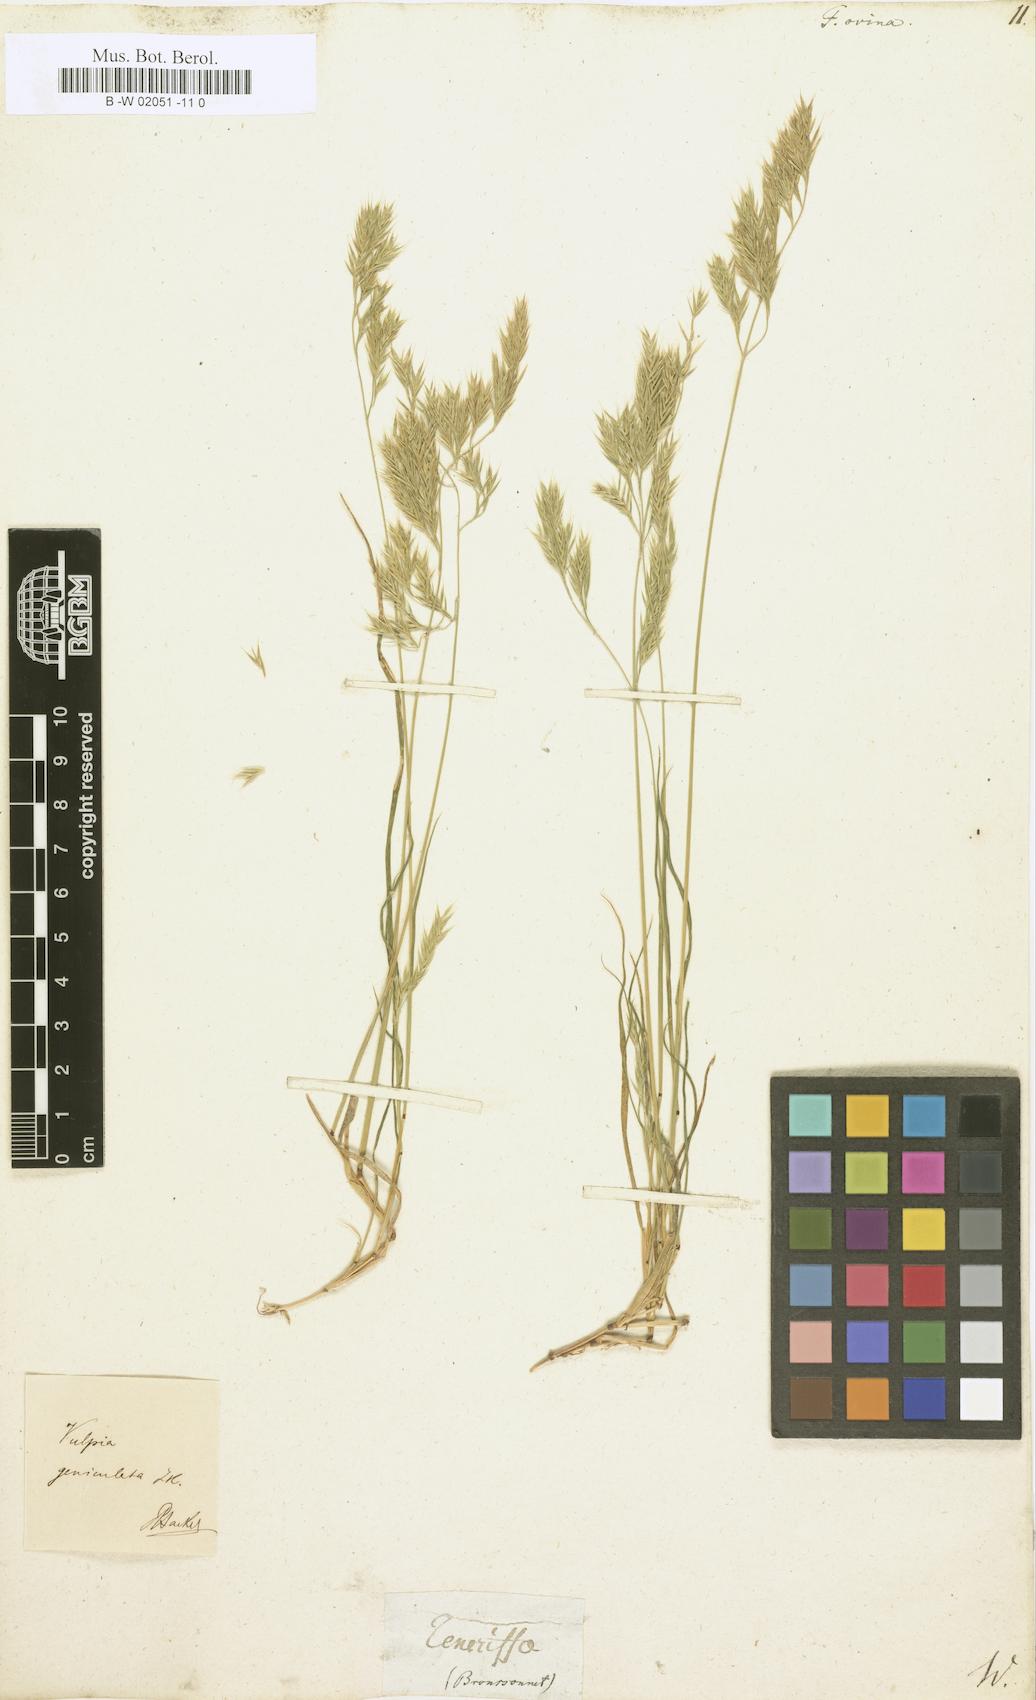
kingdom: Plantae
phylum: Tracheophyta
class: Liliopsida
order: Poales
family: Poaceae
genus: Festuca
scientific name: Festuca ovina
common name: Sheep fescue
